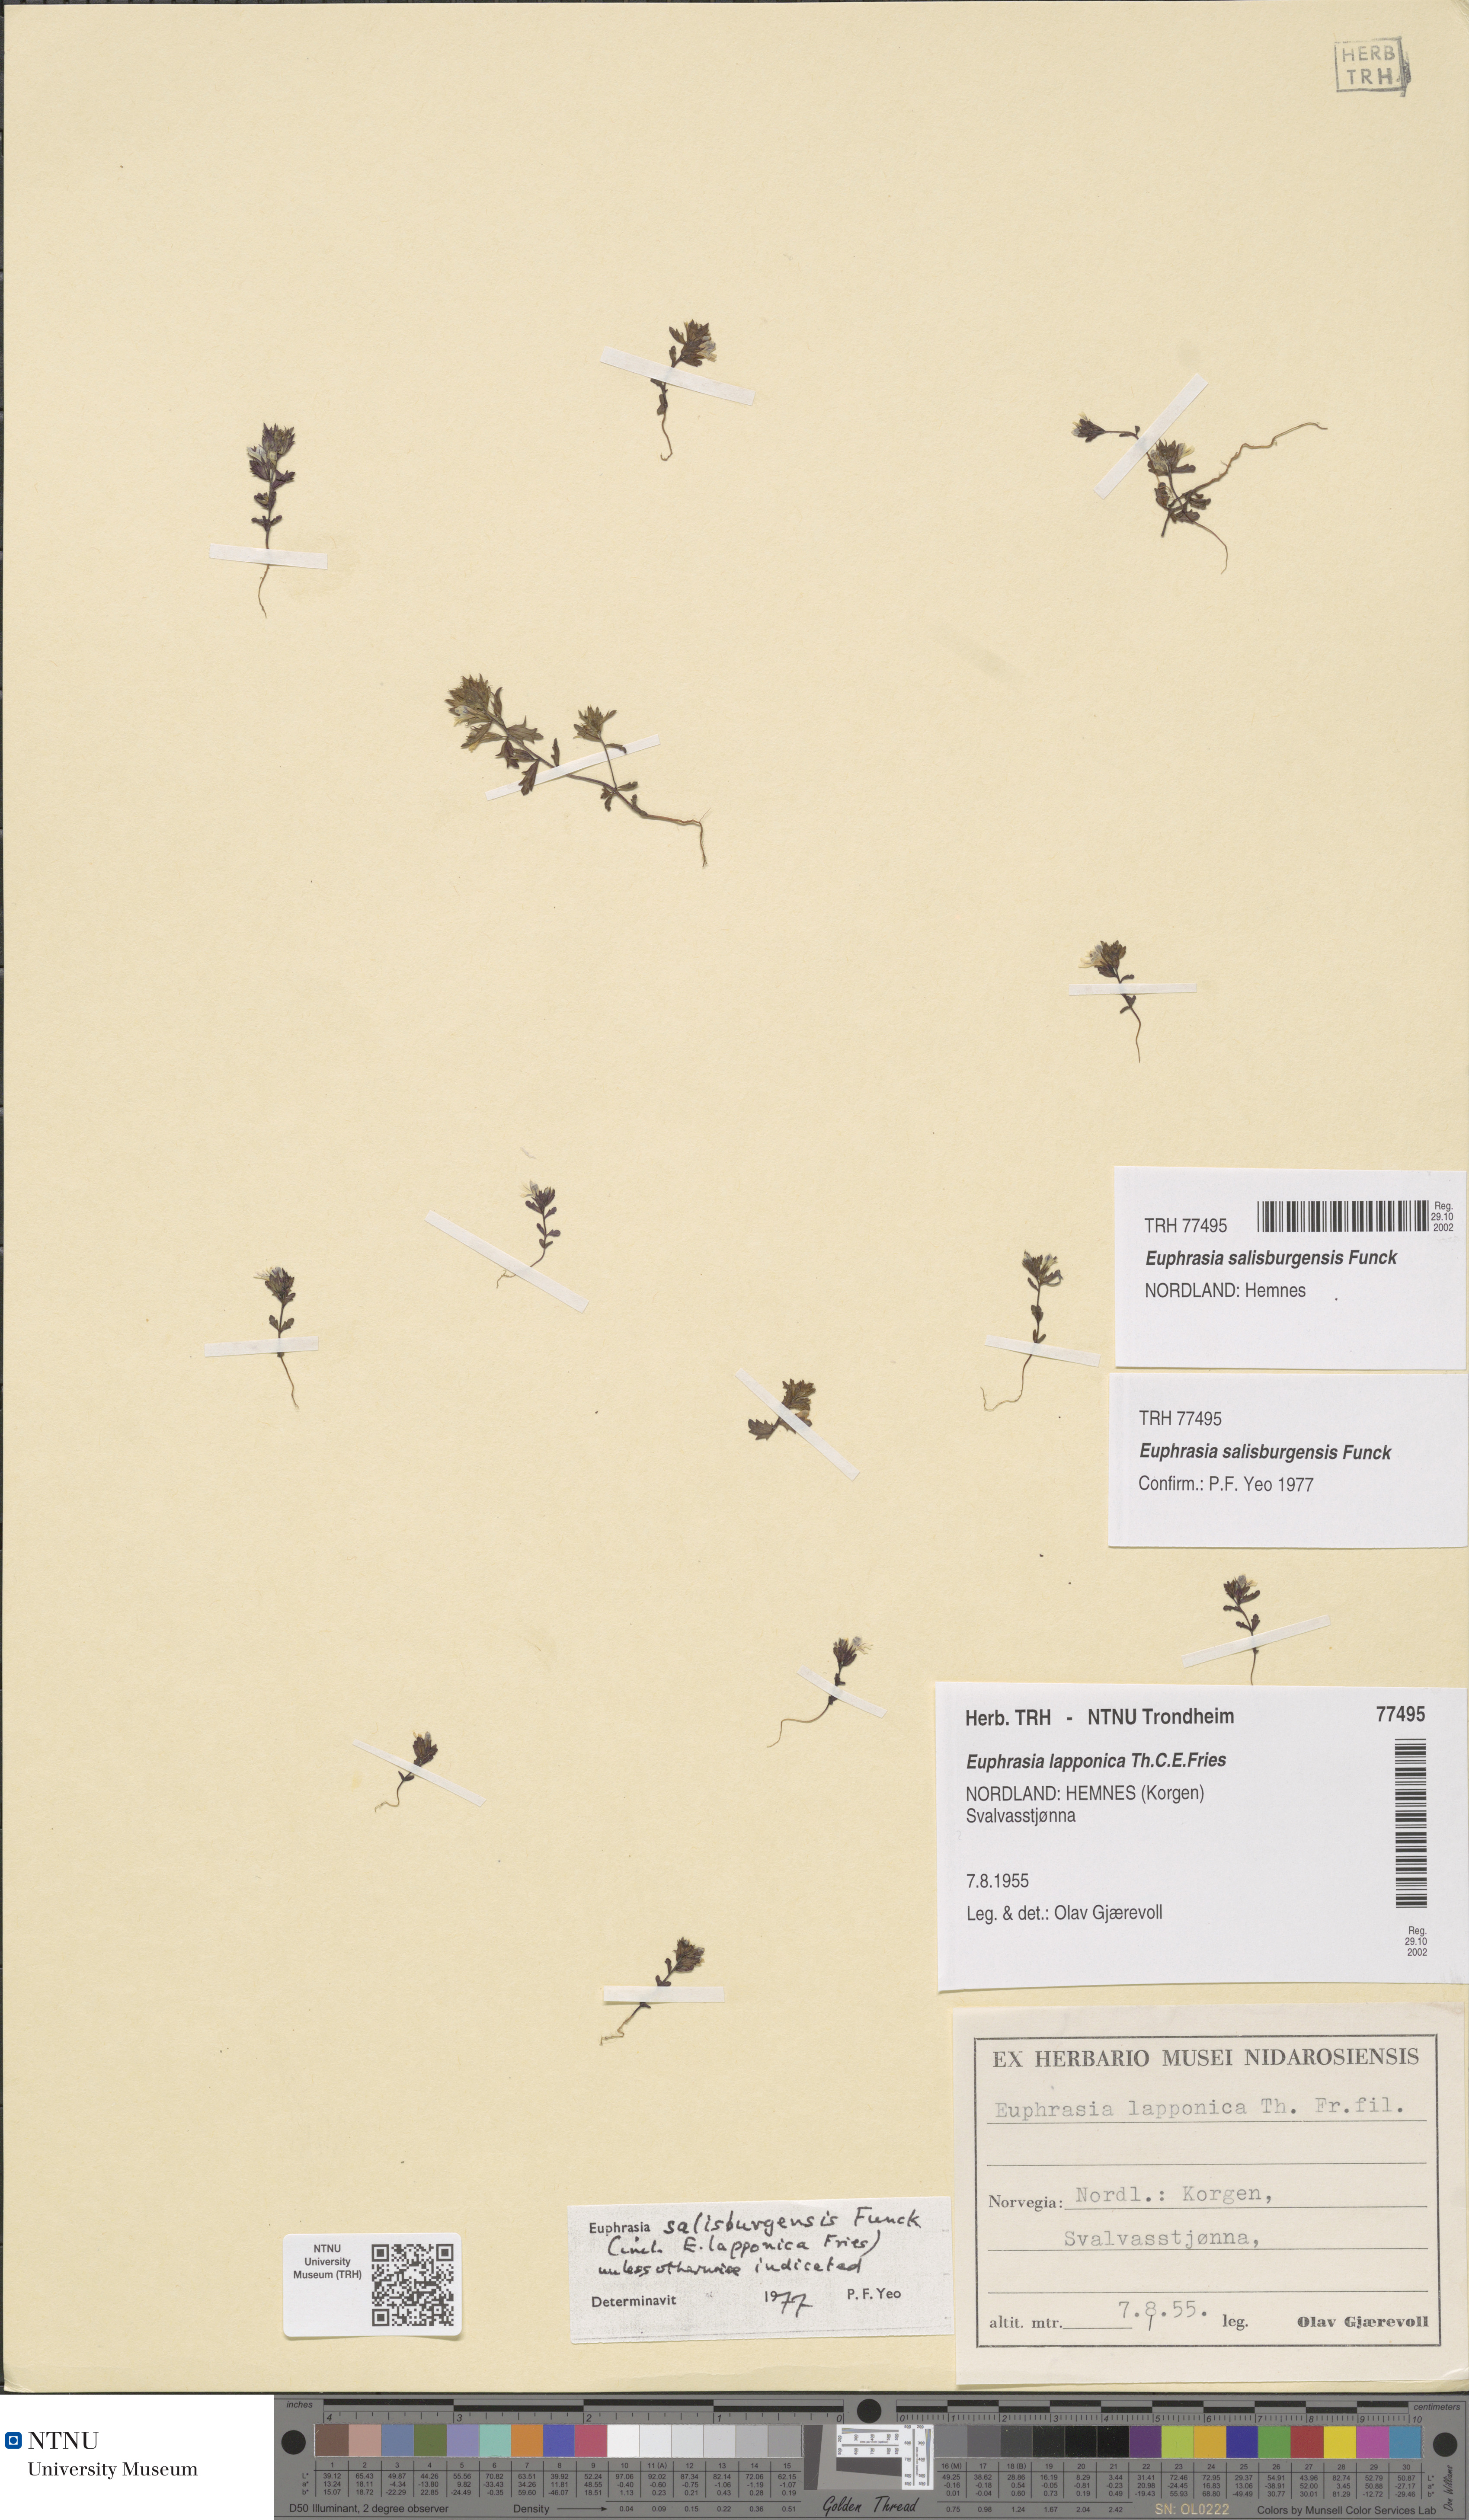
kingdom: Plantae
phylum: Tracheophyta
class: Magnoliopsida
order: Lamiales
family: Orobanchaceae
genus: Euphrasia
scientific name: Euphrasia salisburgensis
